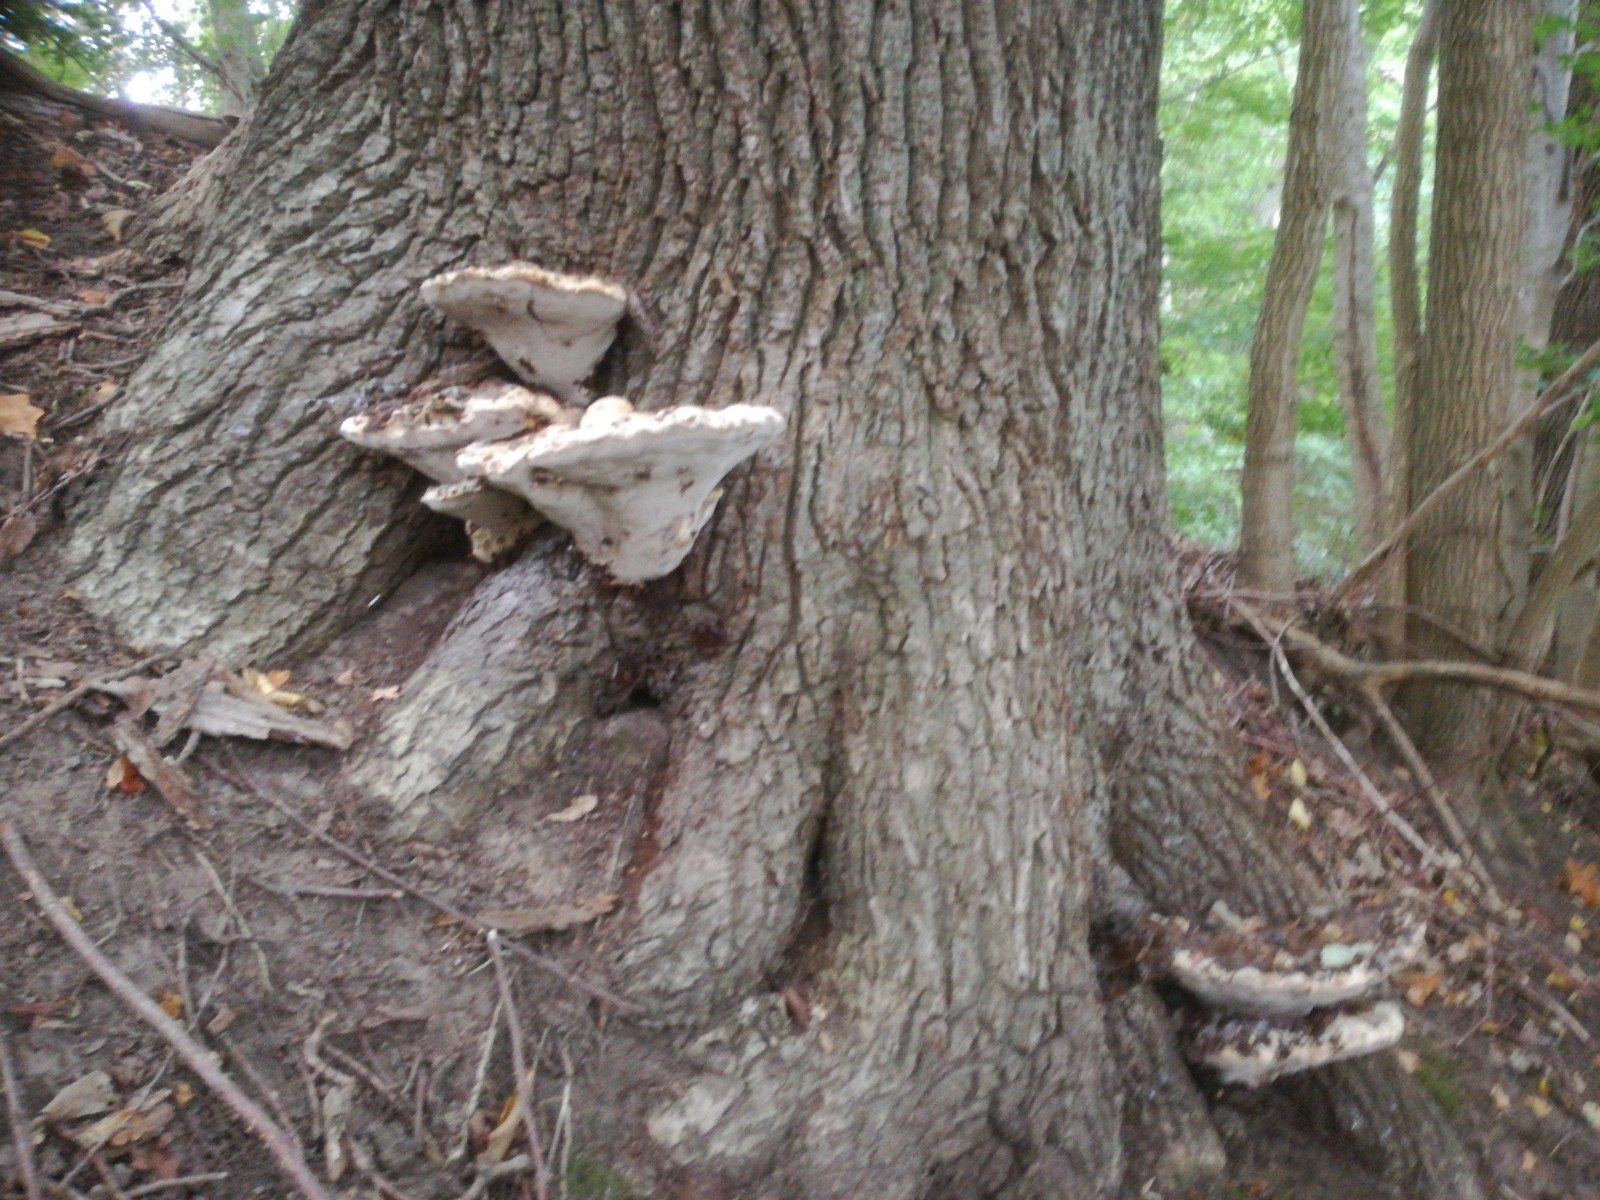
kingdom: Fungi
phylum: Basidiomycota
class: Agaricomycetes
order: Hymenochaetales
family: Hymenochaetaceae
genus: Pseudoinonotus
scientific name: Pseudoinonotus dryadeus
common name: ege-spejlporesvamp
